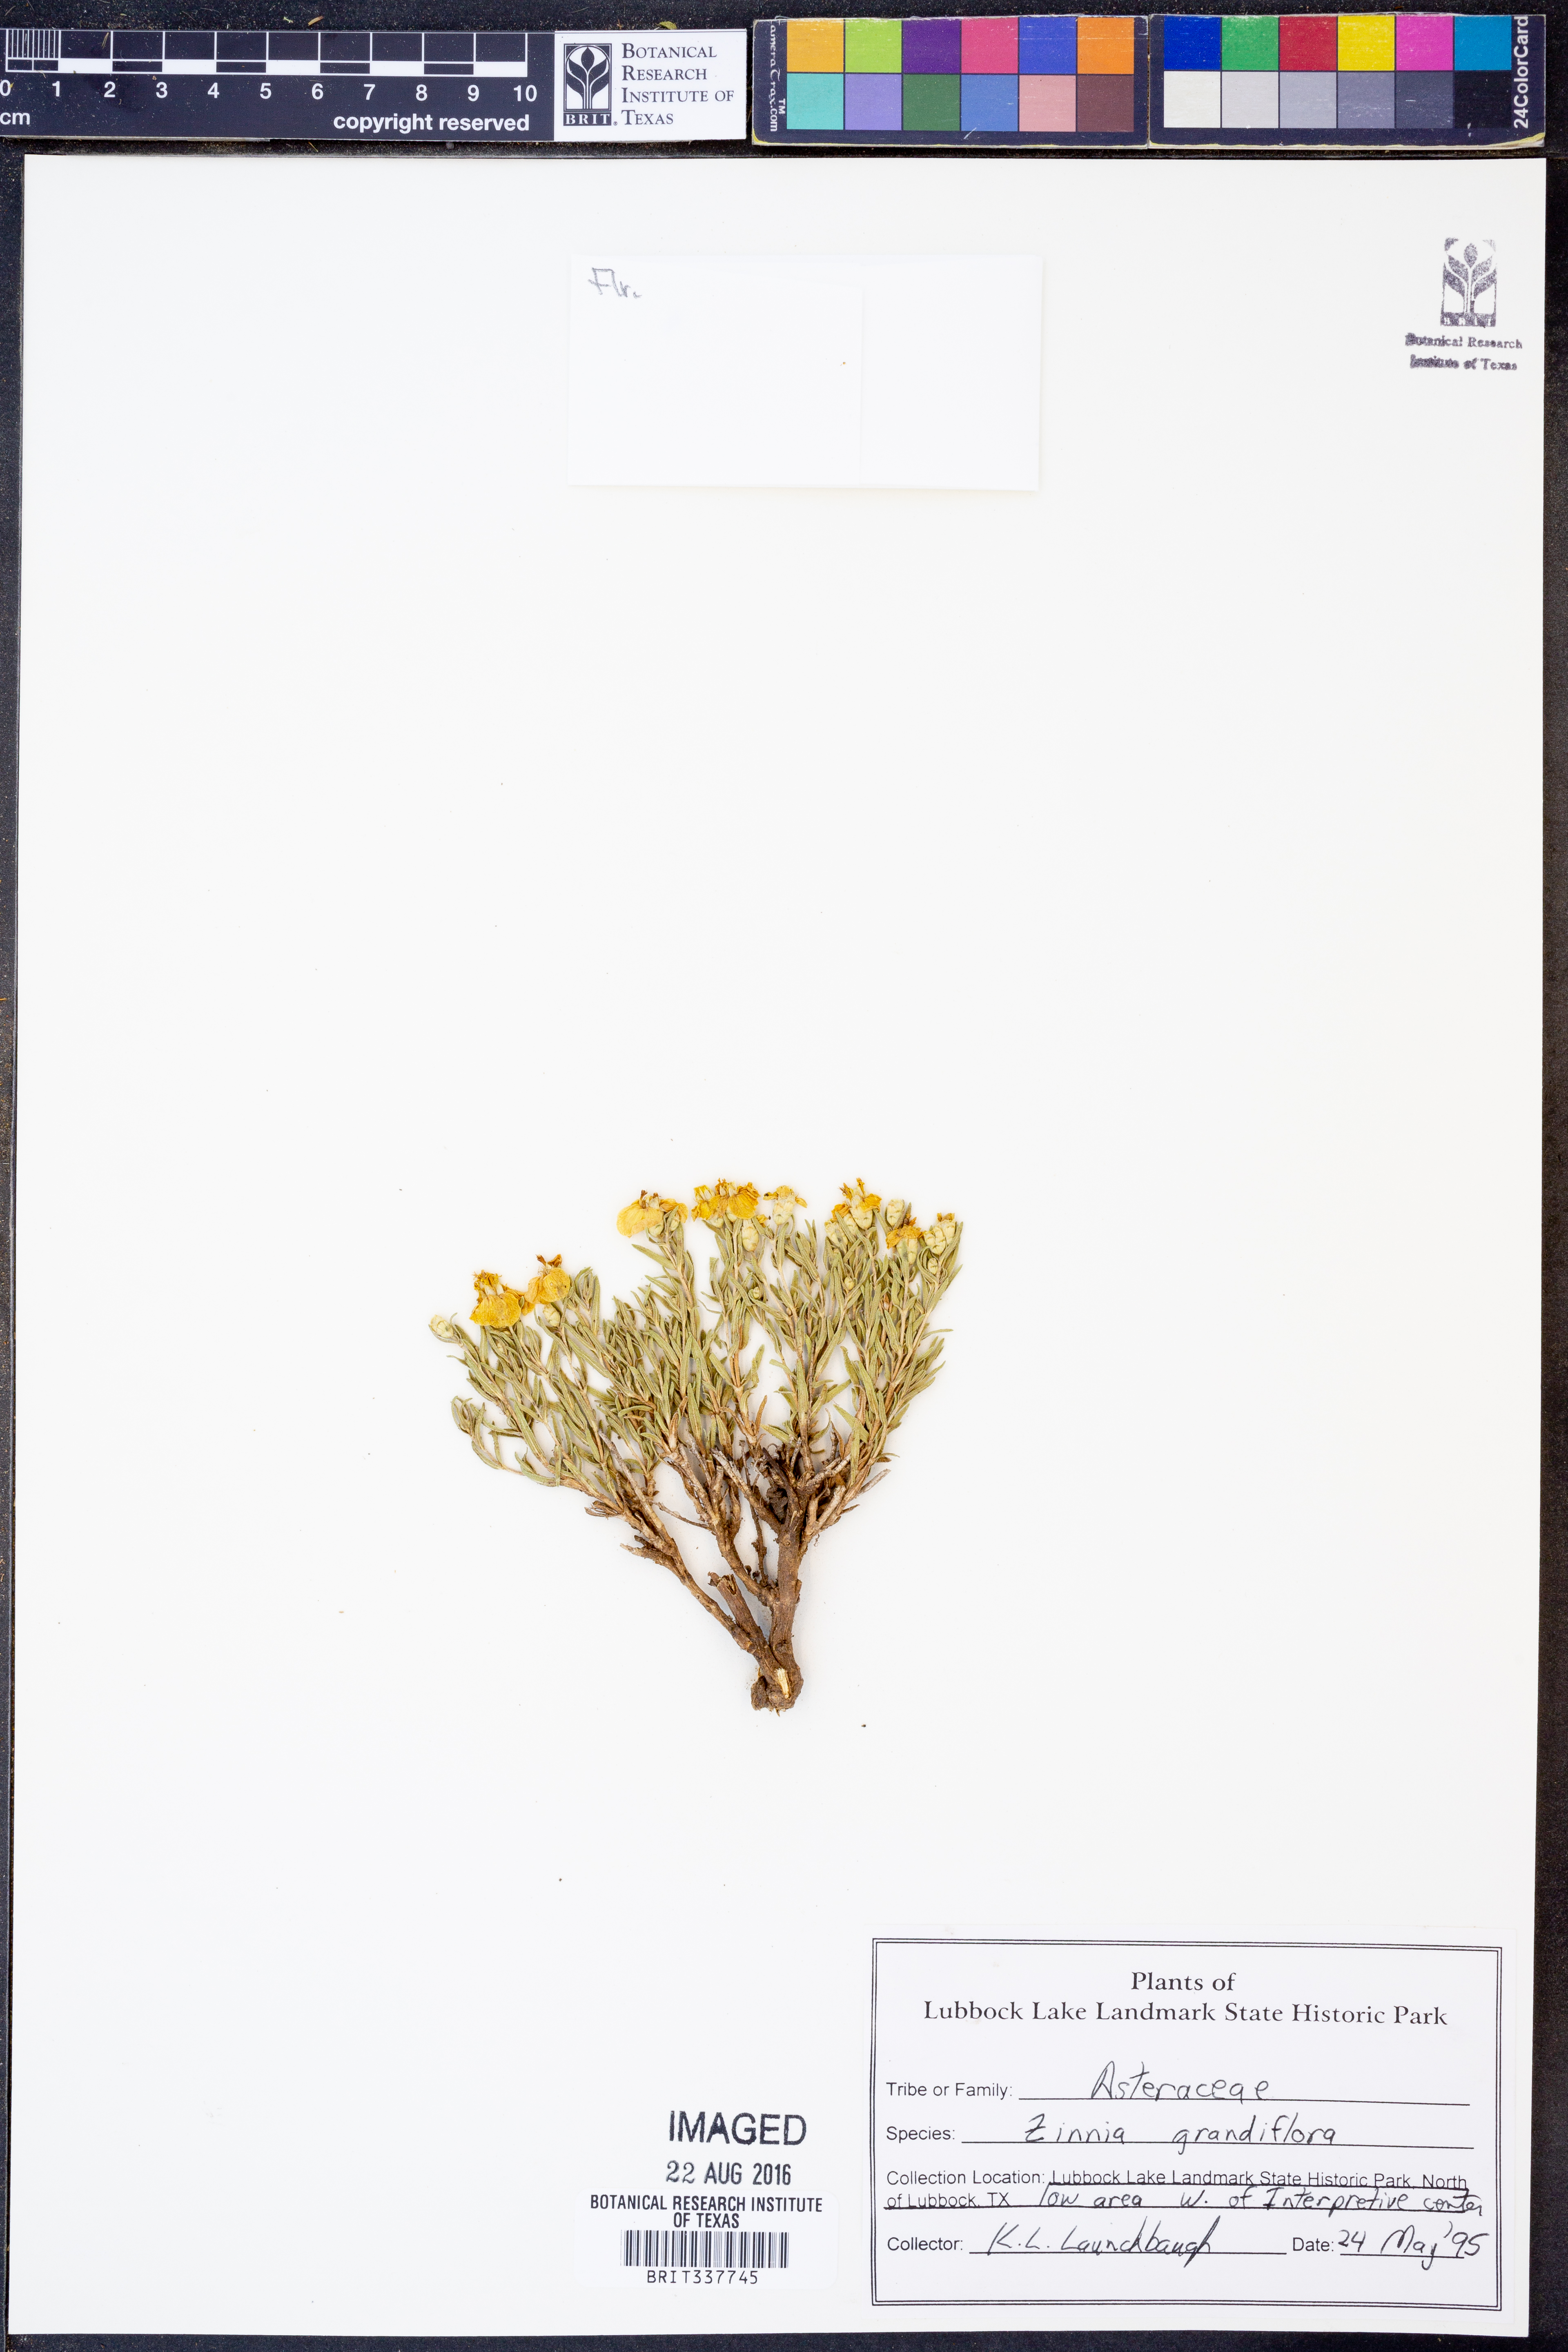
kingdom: Plantae
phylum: Tracheophyta
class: Magnoliopsida
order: Asterales
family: Asteraceae
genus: Zinnia
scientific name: Zinnia grandiflora
